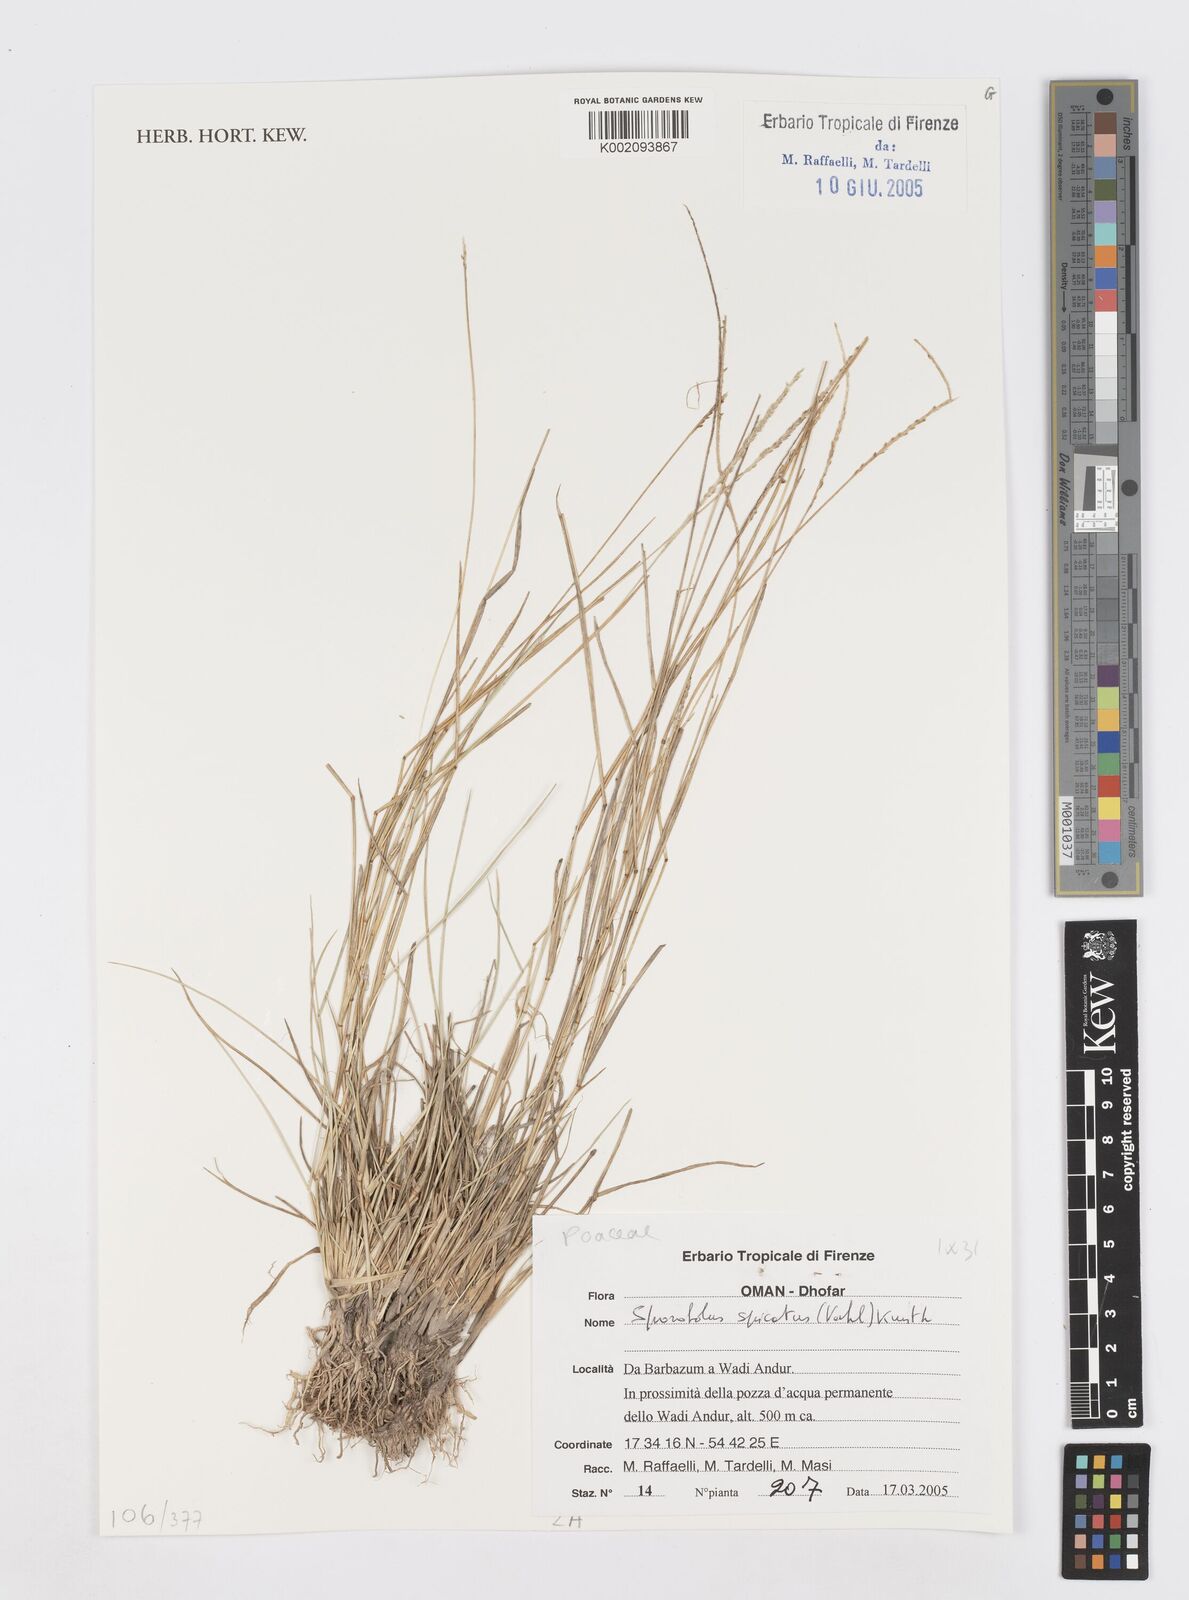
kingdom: Plantae
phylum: Tracheophyta
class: Liliopsida
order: Poales
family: Poaceae
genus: Sporobolus
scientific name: Sporobolus spicatus
